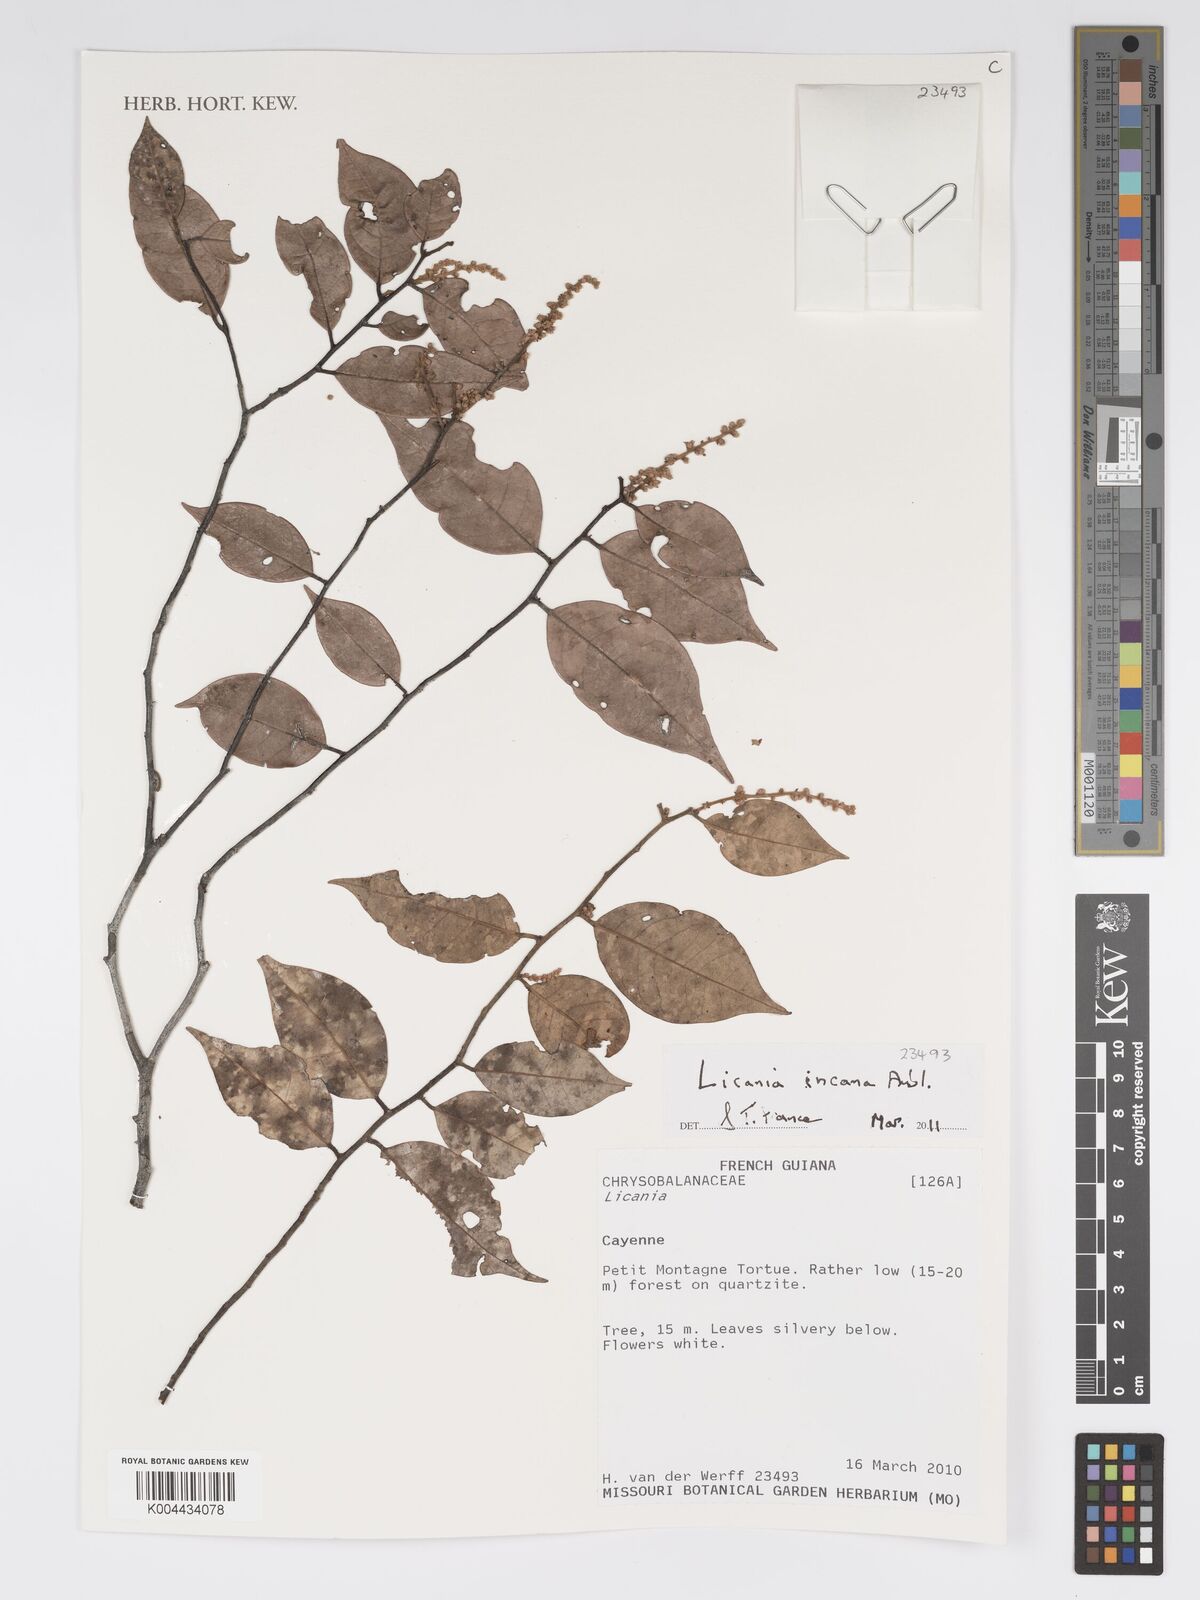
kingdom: Plantae
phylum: Tracheophyta
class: Magnoliopsida
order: Malpighiales
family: Chrysobalanaceae
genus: Licania
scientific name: Licania incana
